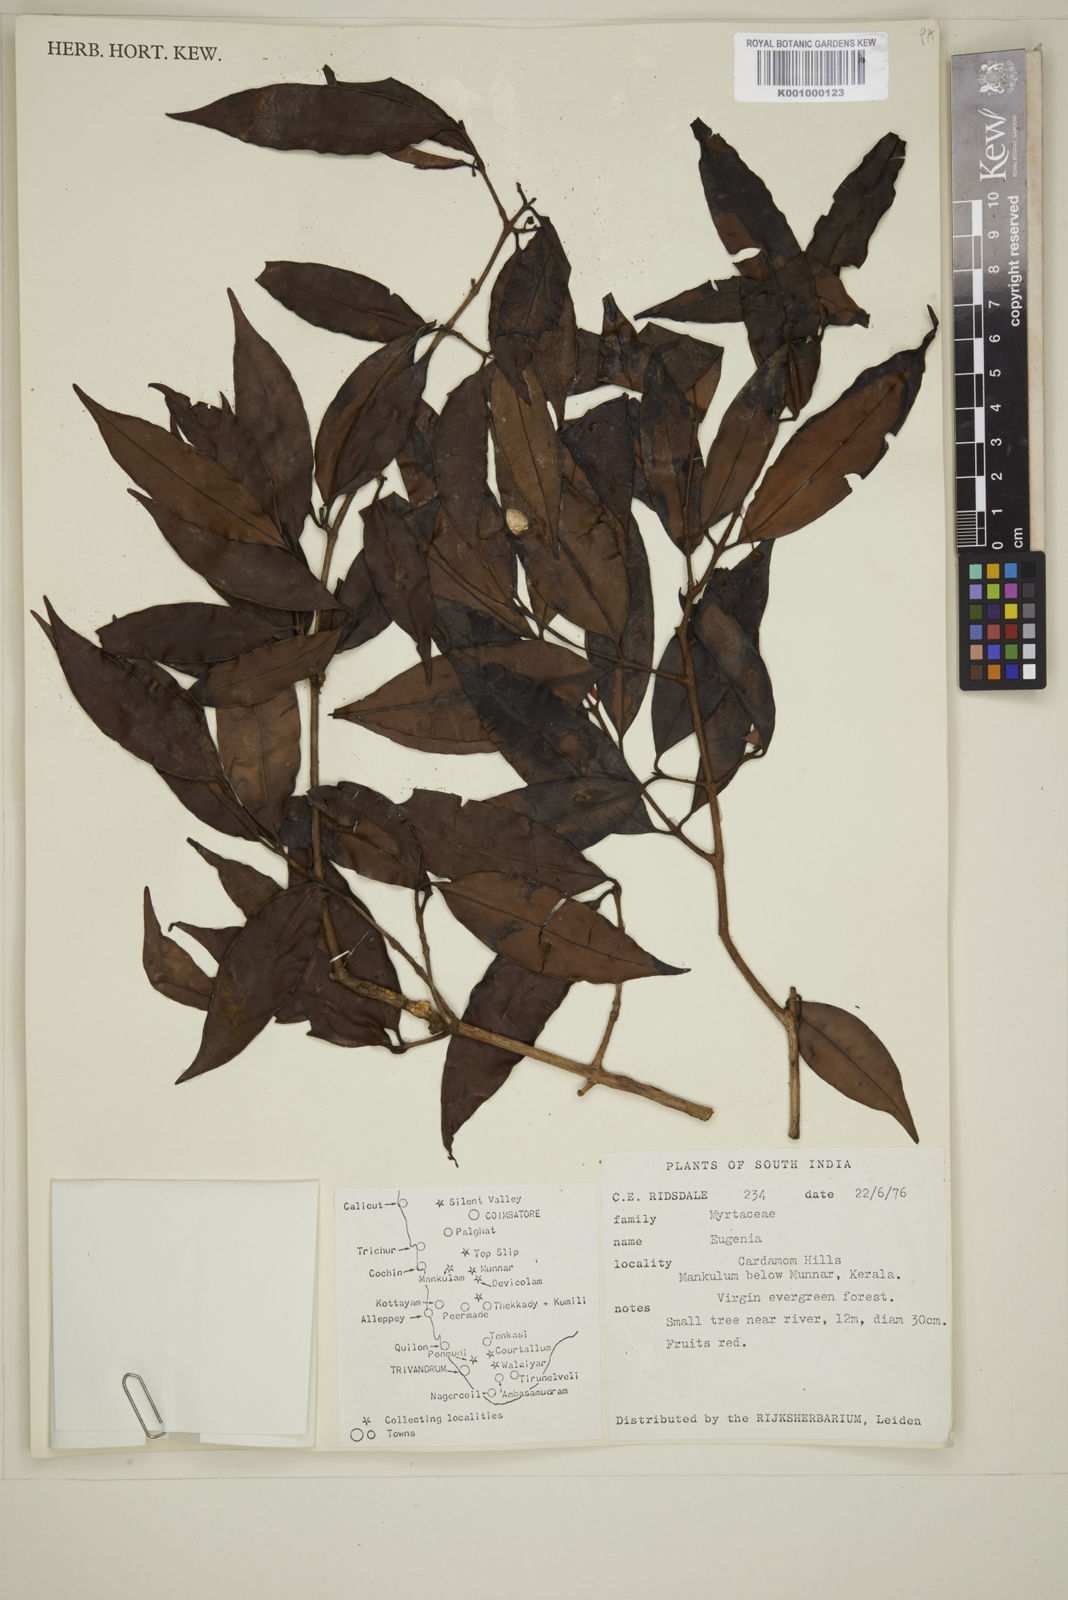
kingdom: Plantae
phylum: Tracheophyta
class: Magnoliopsida
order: Myrtales
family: Myrtaceae
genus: Eugenia
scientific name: Eugenia
